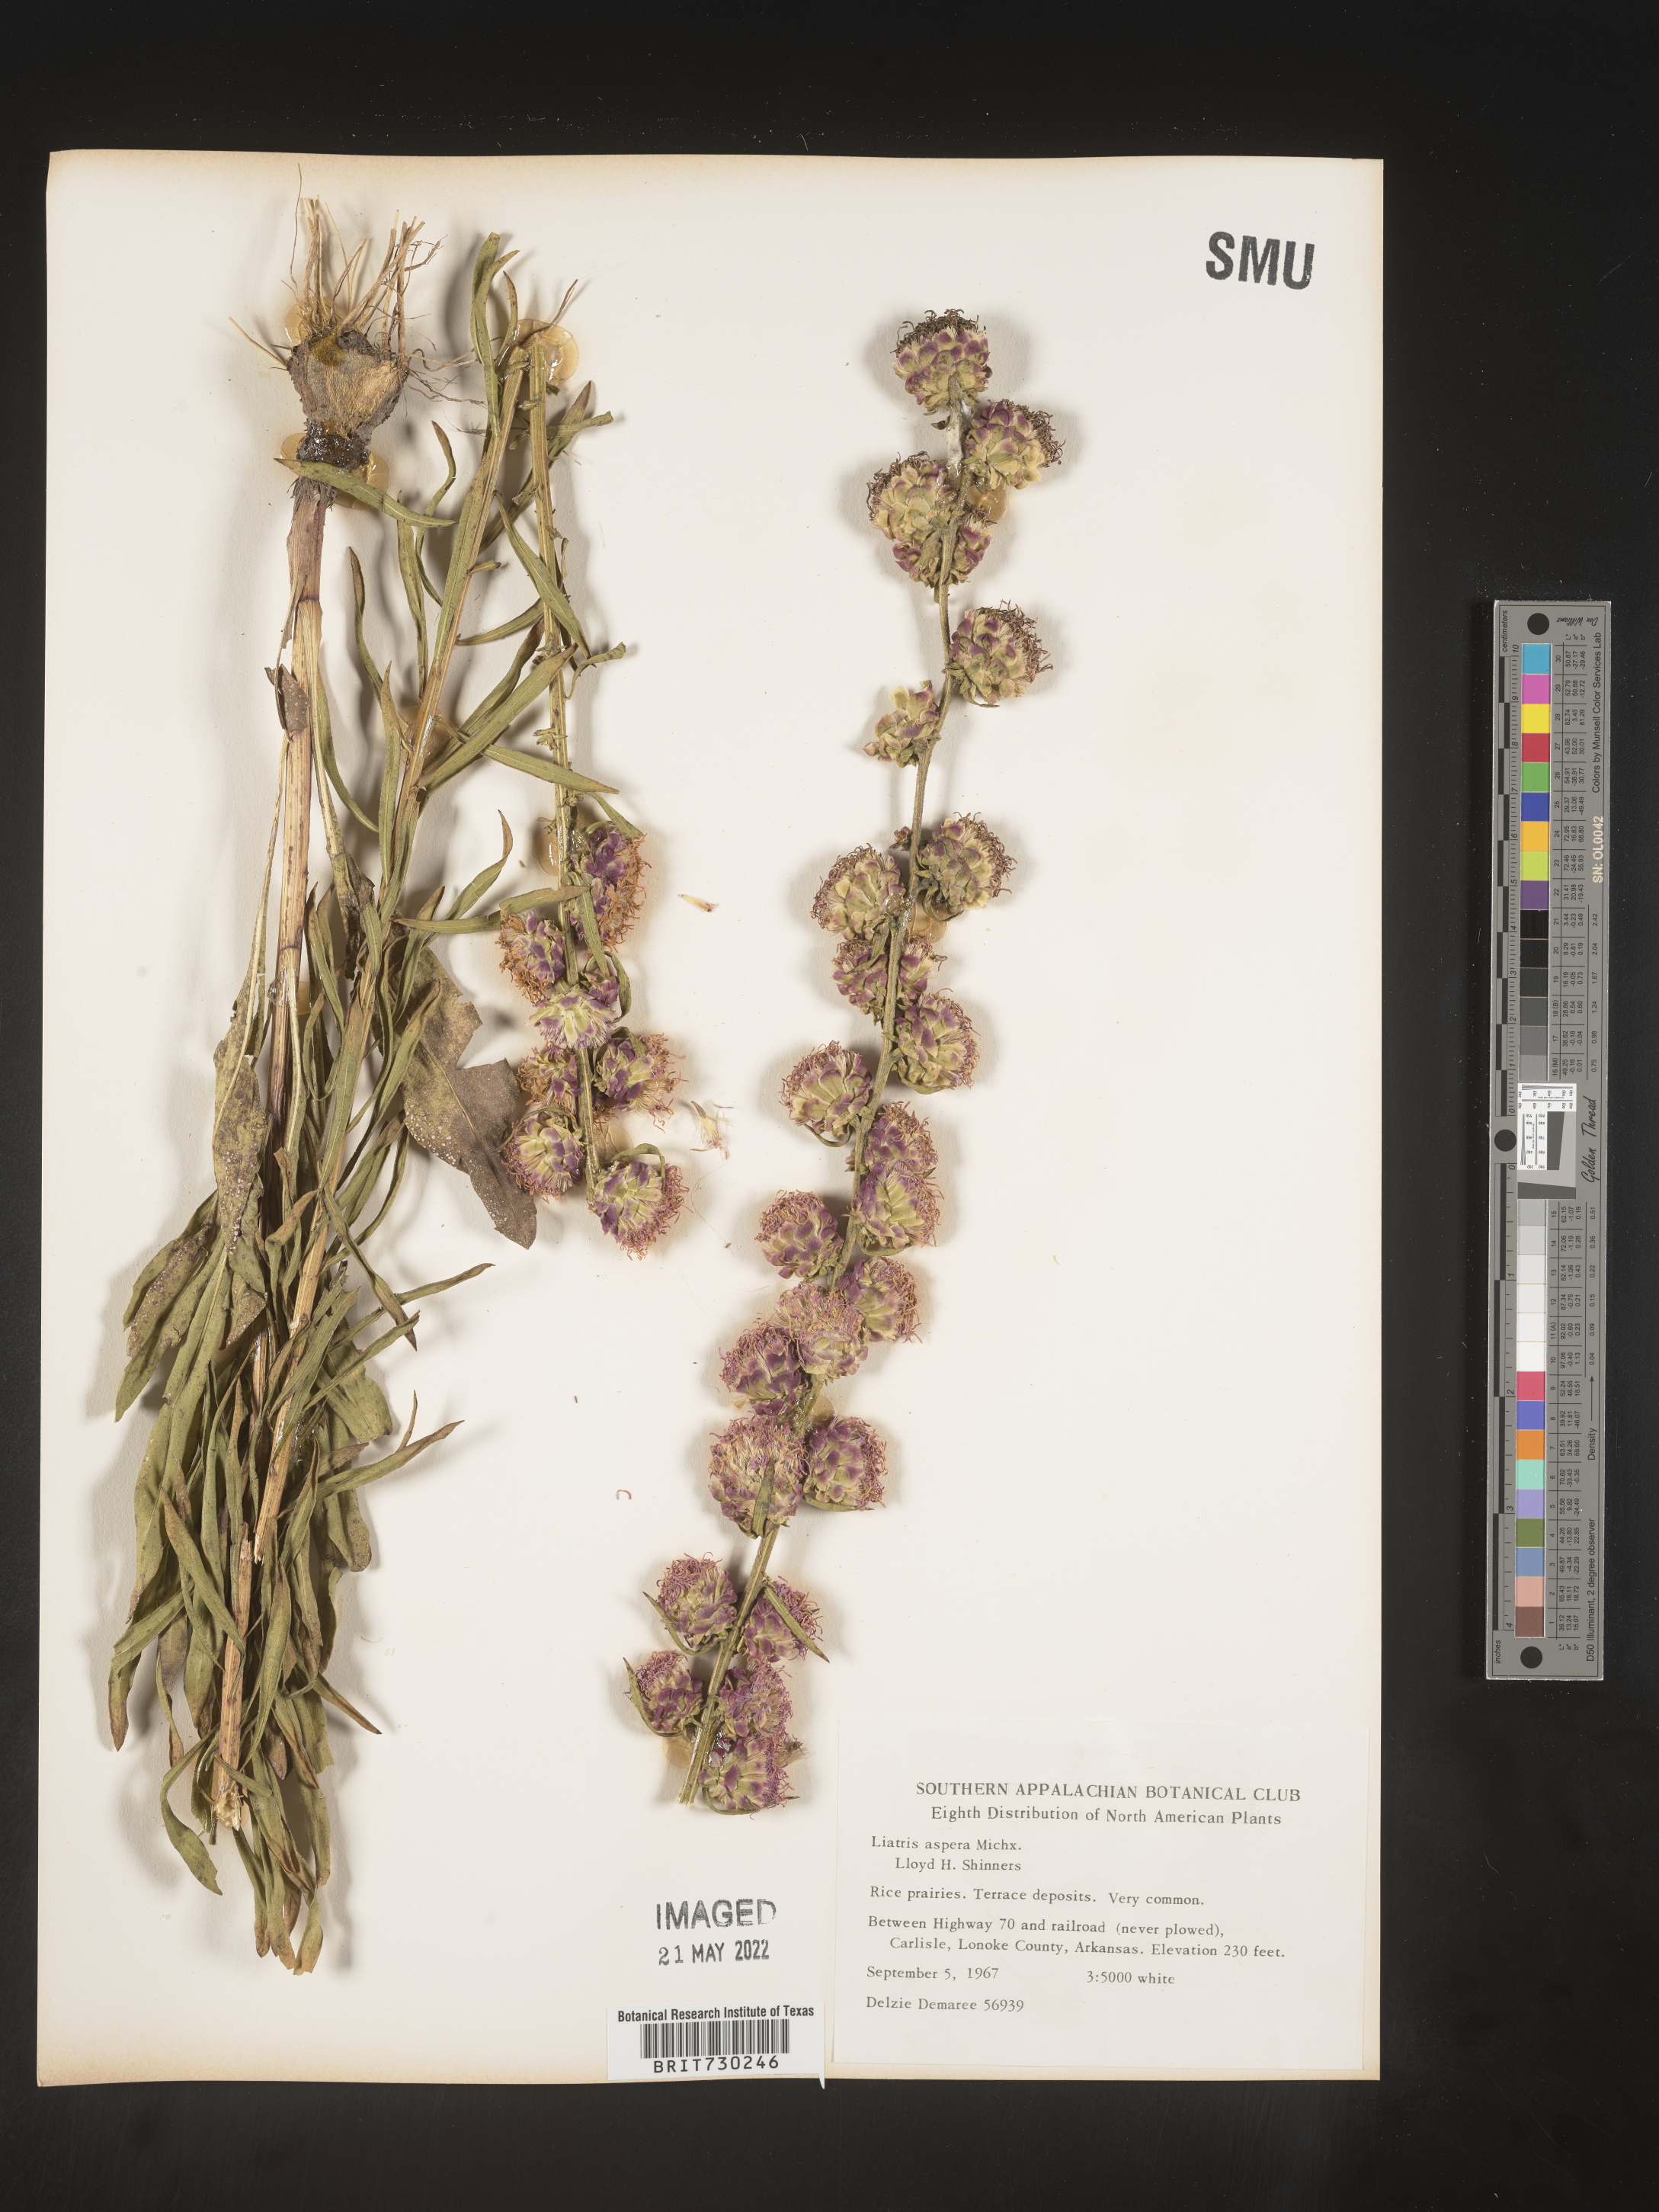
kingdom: Plantae
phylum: Tracheophyta
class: Magnoliopsida
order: Asterales
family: Asteraceae
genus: Liatris
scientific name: Liatris aspera
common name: Lacerate blazing-star
